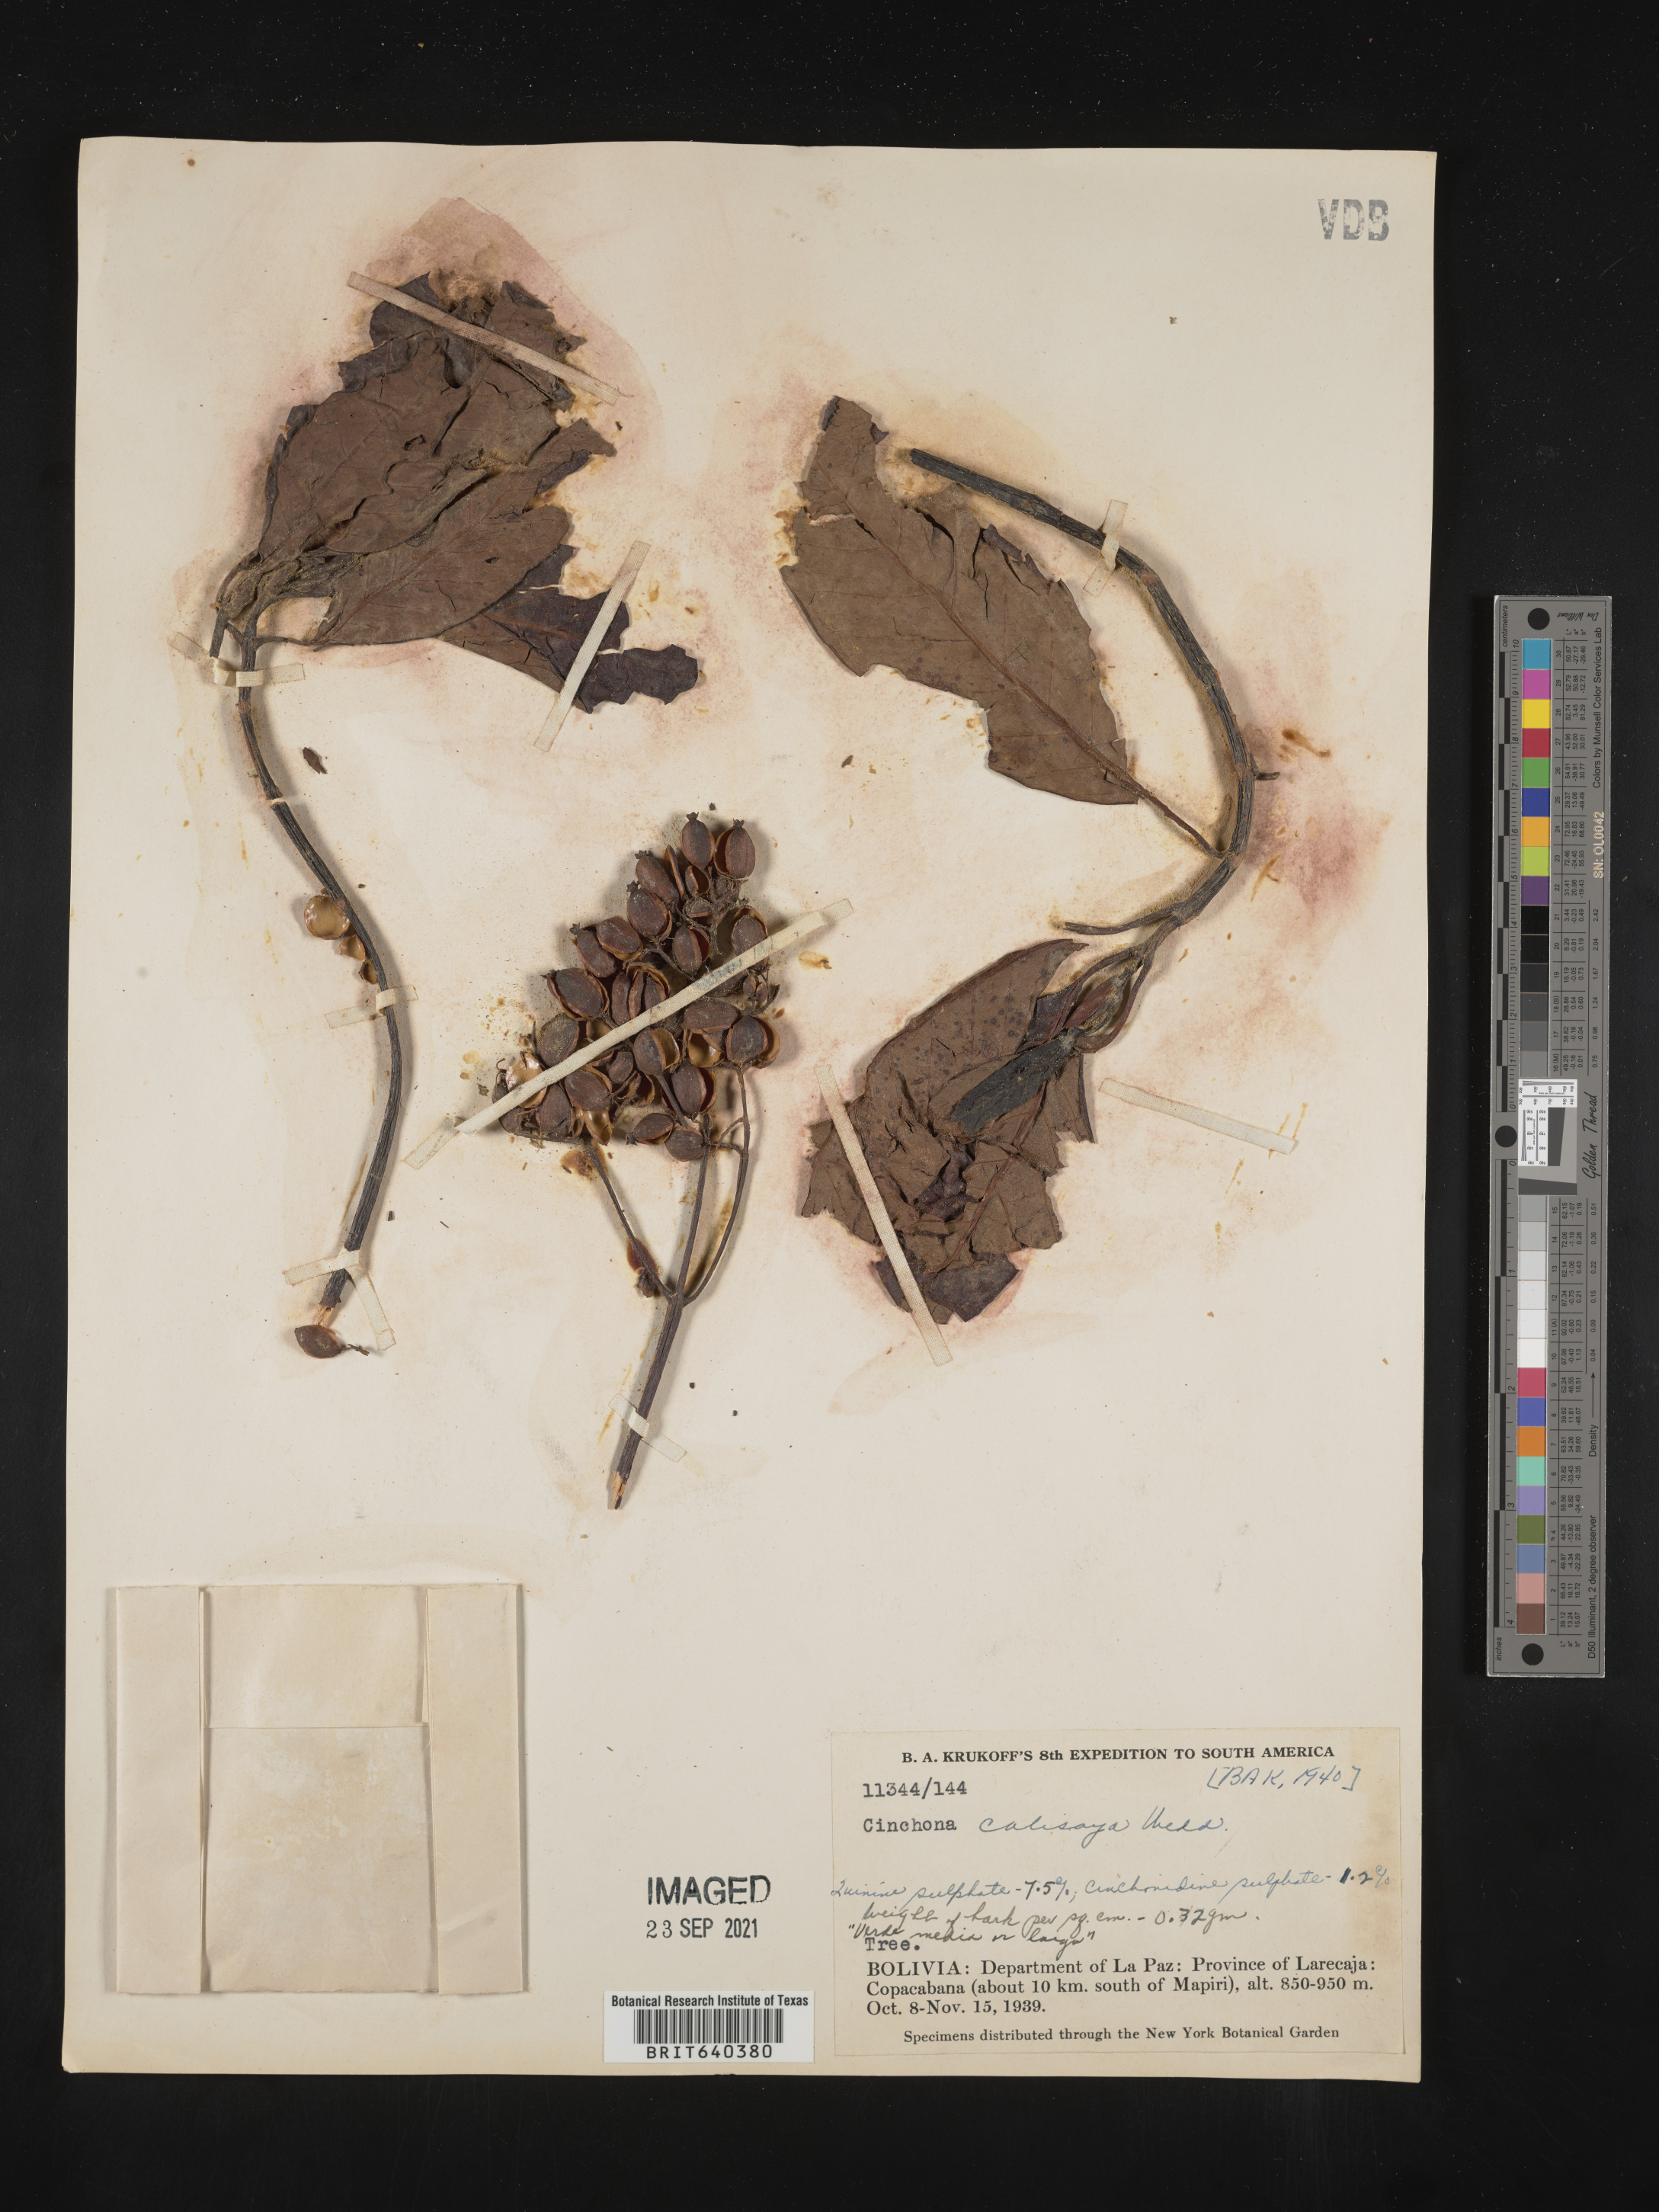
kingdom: Plantae
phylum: Tracheophyta
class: Magnoliopsida
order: Gentianales
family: Rubiaceae
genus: Cinchona
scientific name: Cinchona
